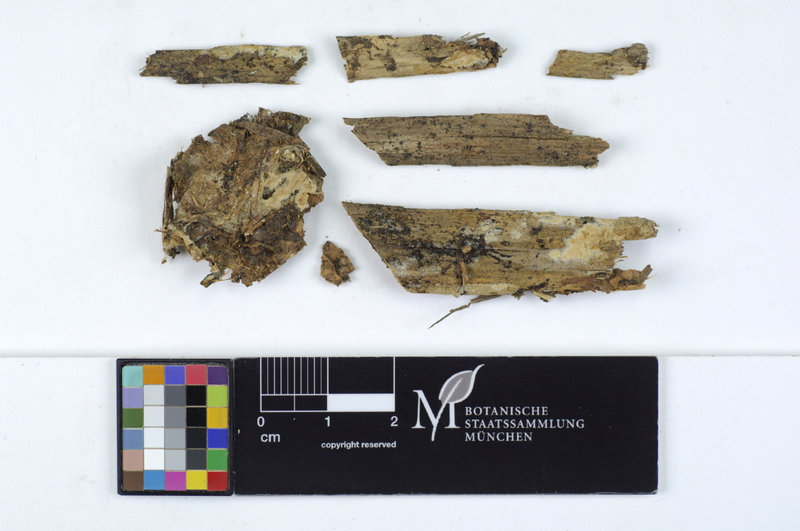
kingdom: Fungi
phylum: Basidiomycota
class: Agaricomycetes
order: Amylocorticiales
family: Amylocorticiaceae
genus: Ceraceomyces
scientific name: Ceraceomyces sublaevis
